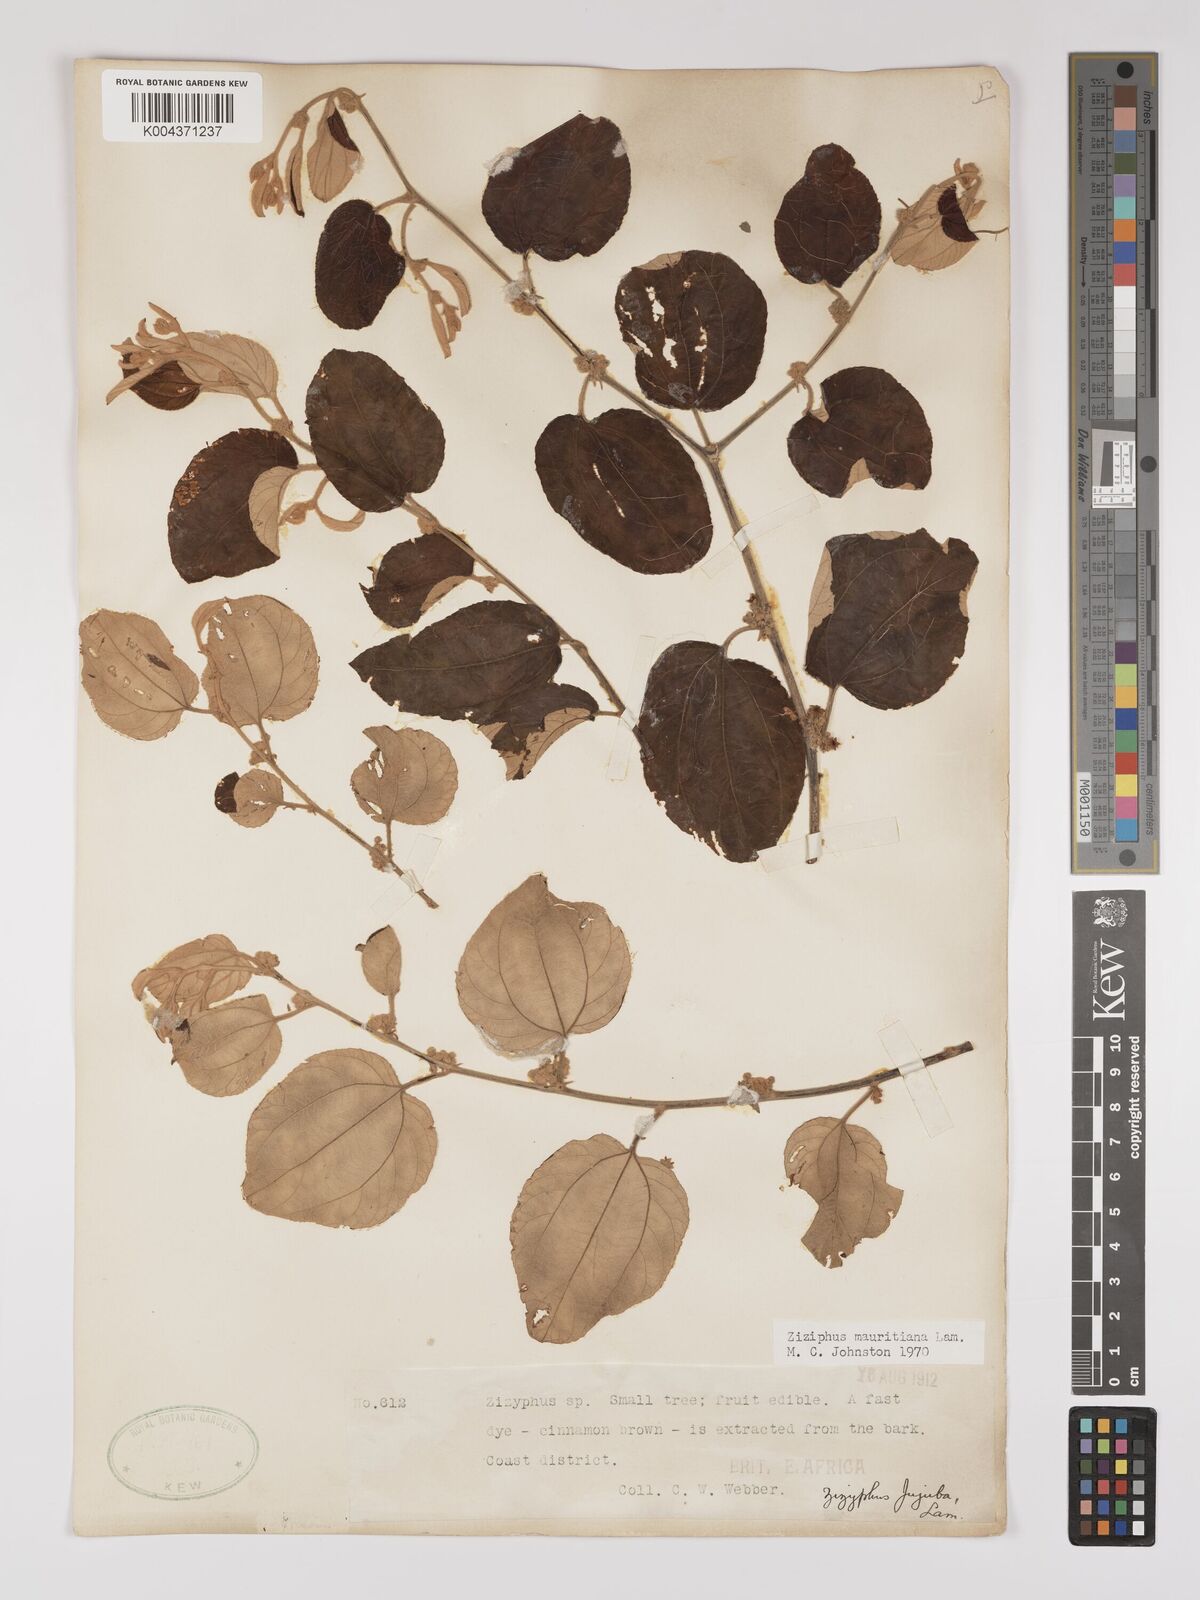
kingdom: Plantae
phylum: Tracheophyta
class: Magnoliopsida
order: Rosales
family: Rhamnaceae
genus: Ziziphus
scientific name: Ziziphus mauritiana
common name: Indian jujube
